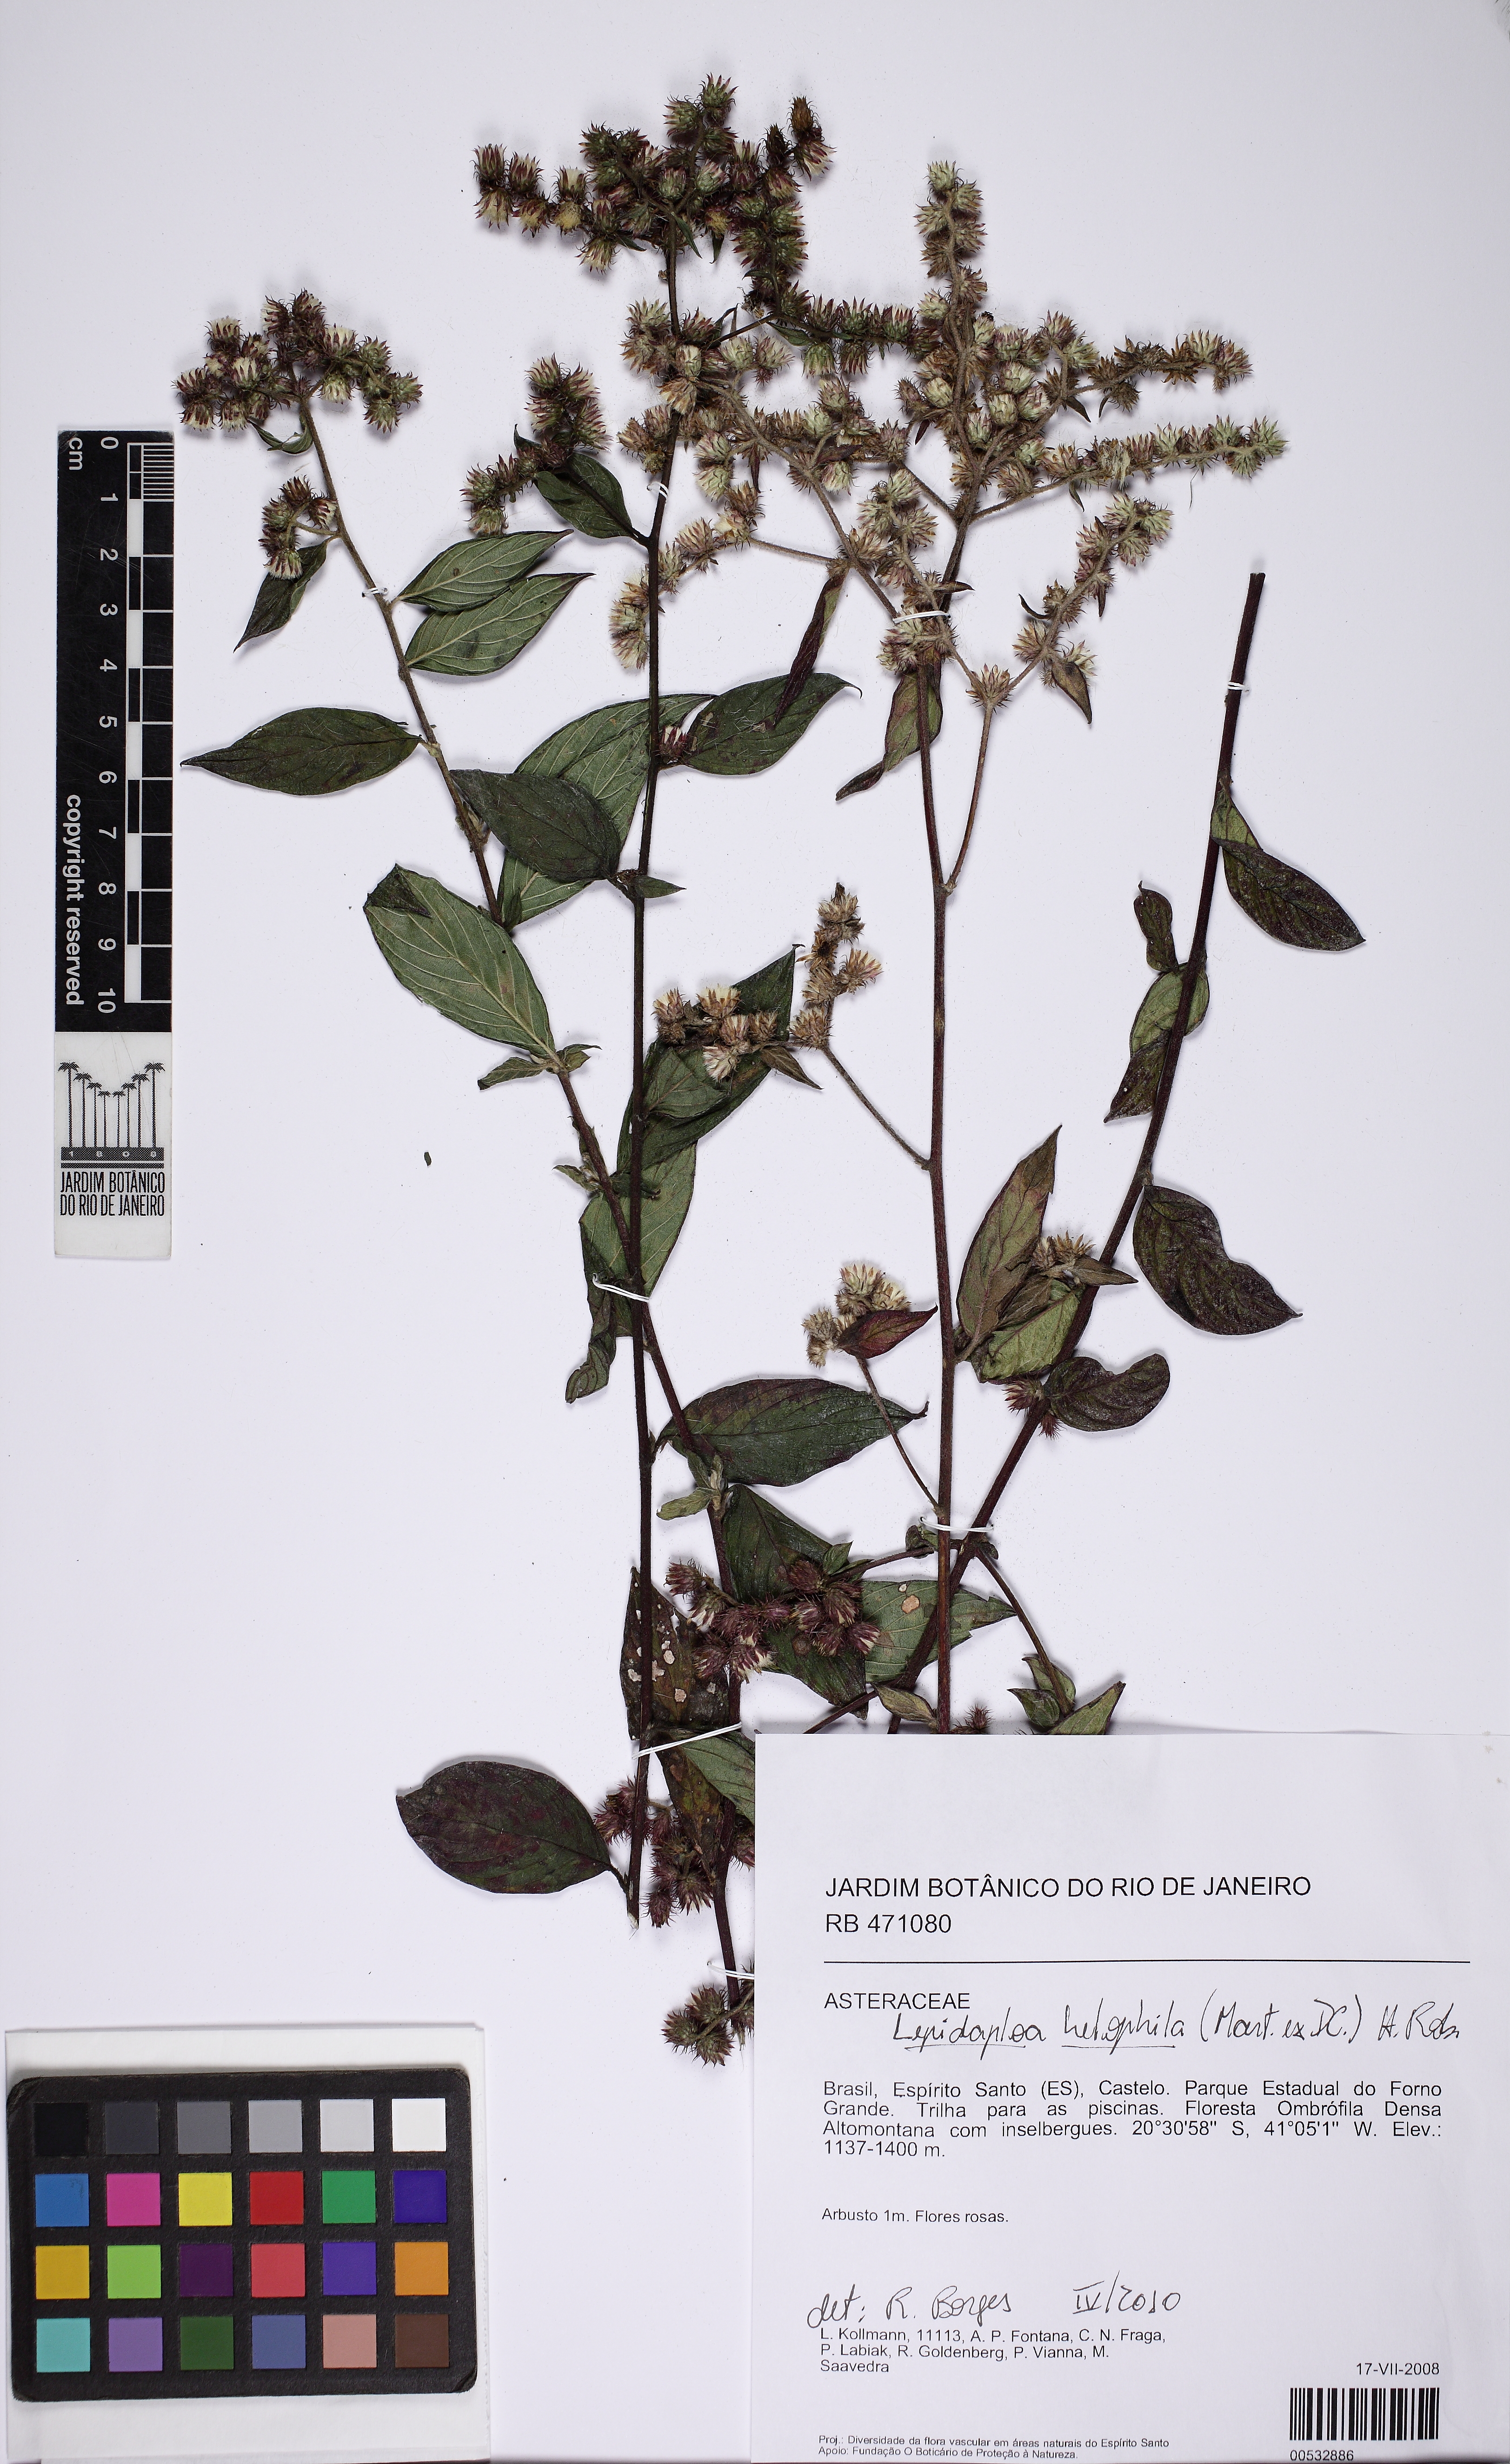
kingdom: Plantae
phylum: Tracheophyta
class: Magnoliopsida
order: Asterales
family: Asteraceae
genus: Lepidaploa
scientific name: Lepidaploa helophila
